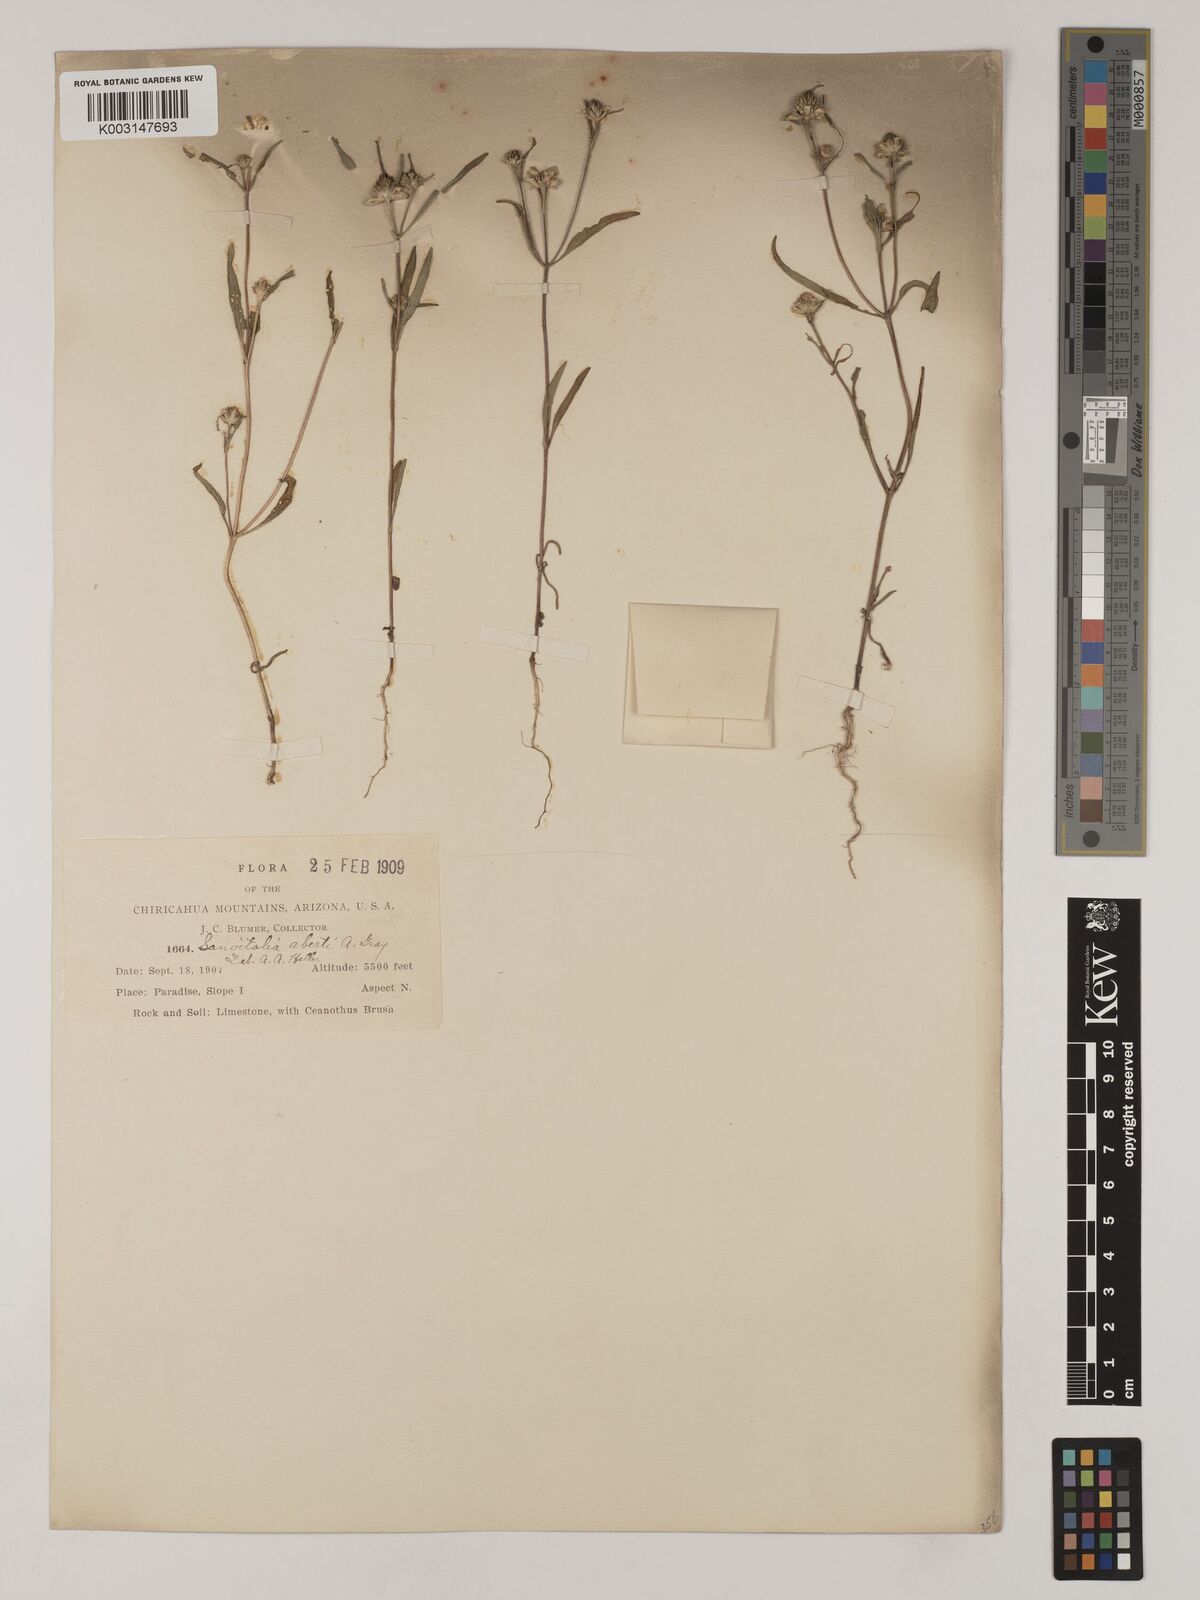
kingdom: Plantae
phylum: Tracheophyta
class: Magnoliopsida
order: Asterales
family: Asteraceae
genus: Sanvitalia
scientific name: Sanvitalia abertii
